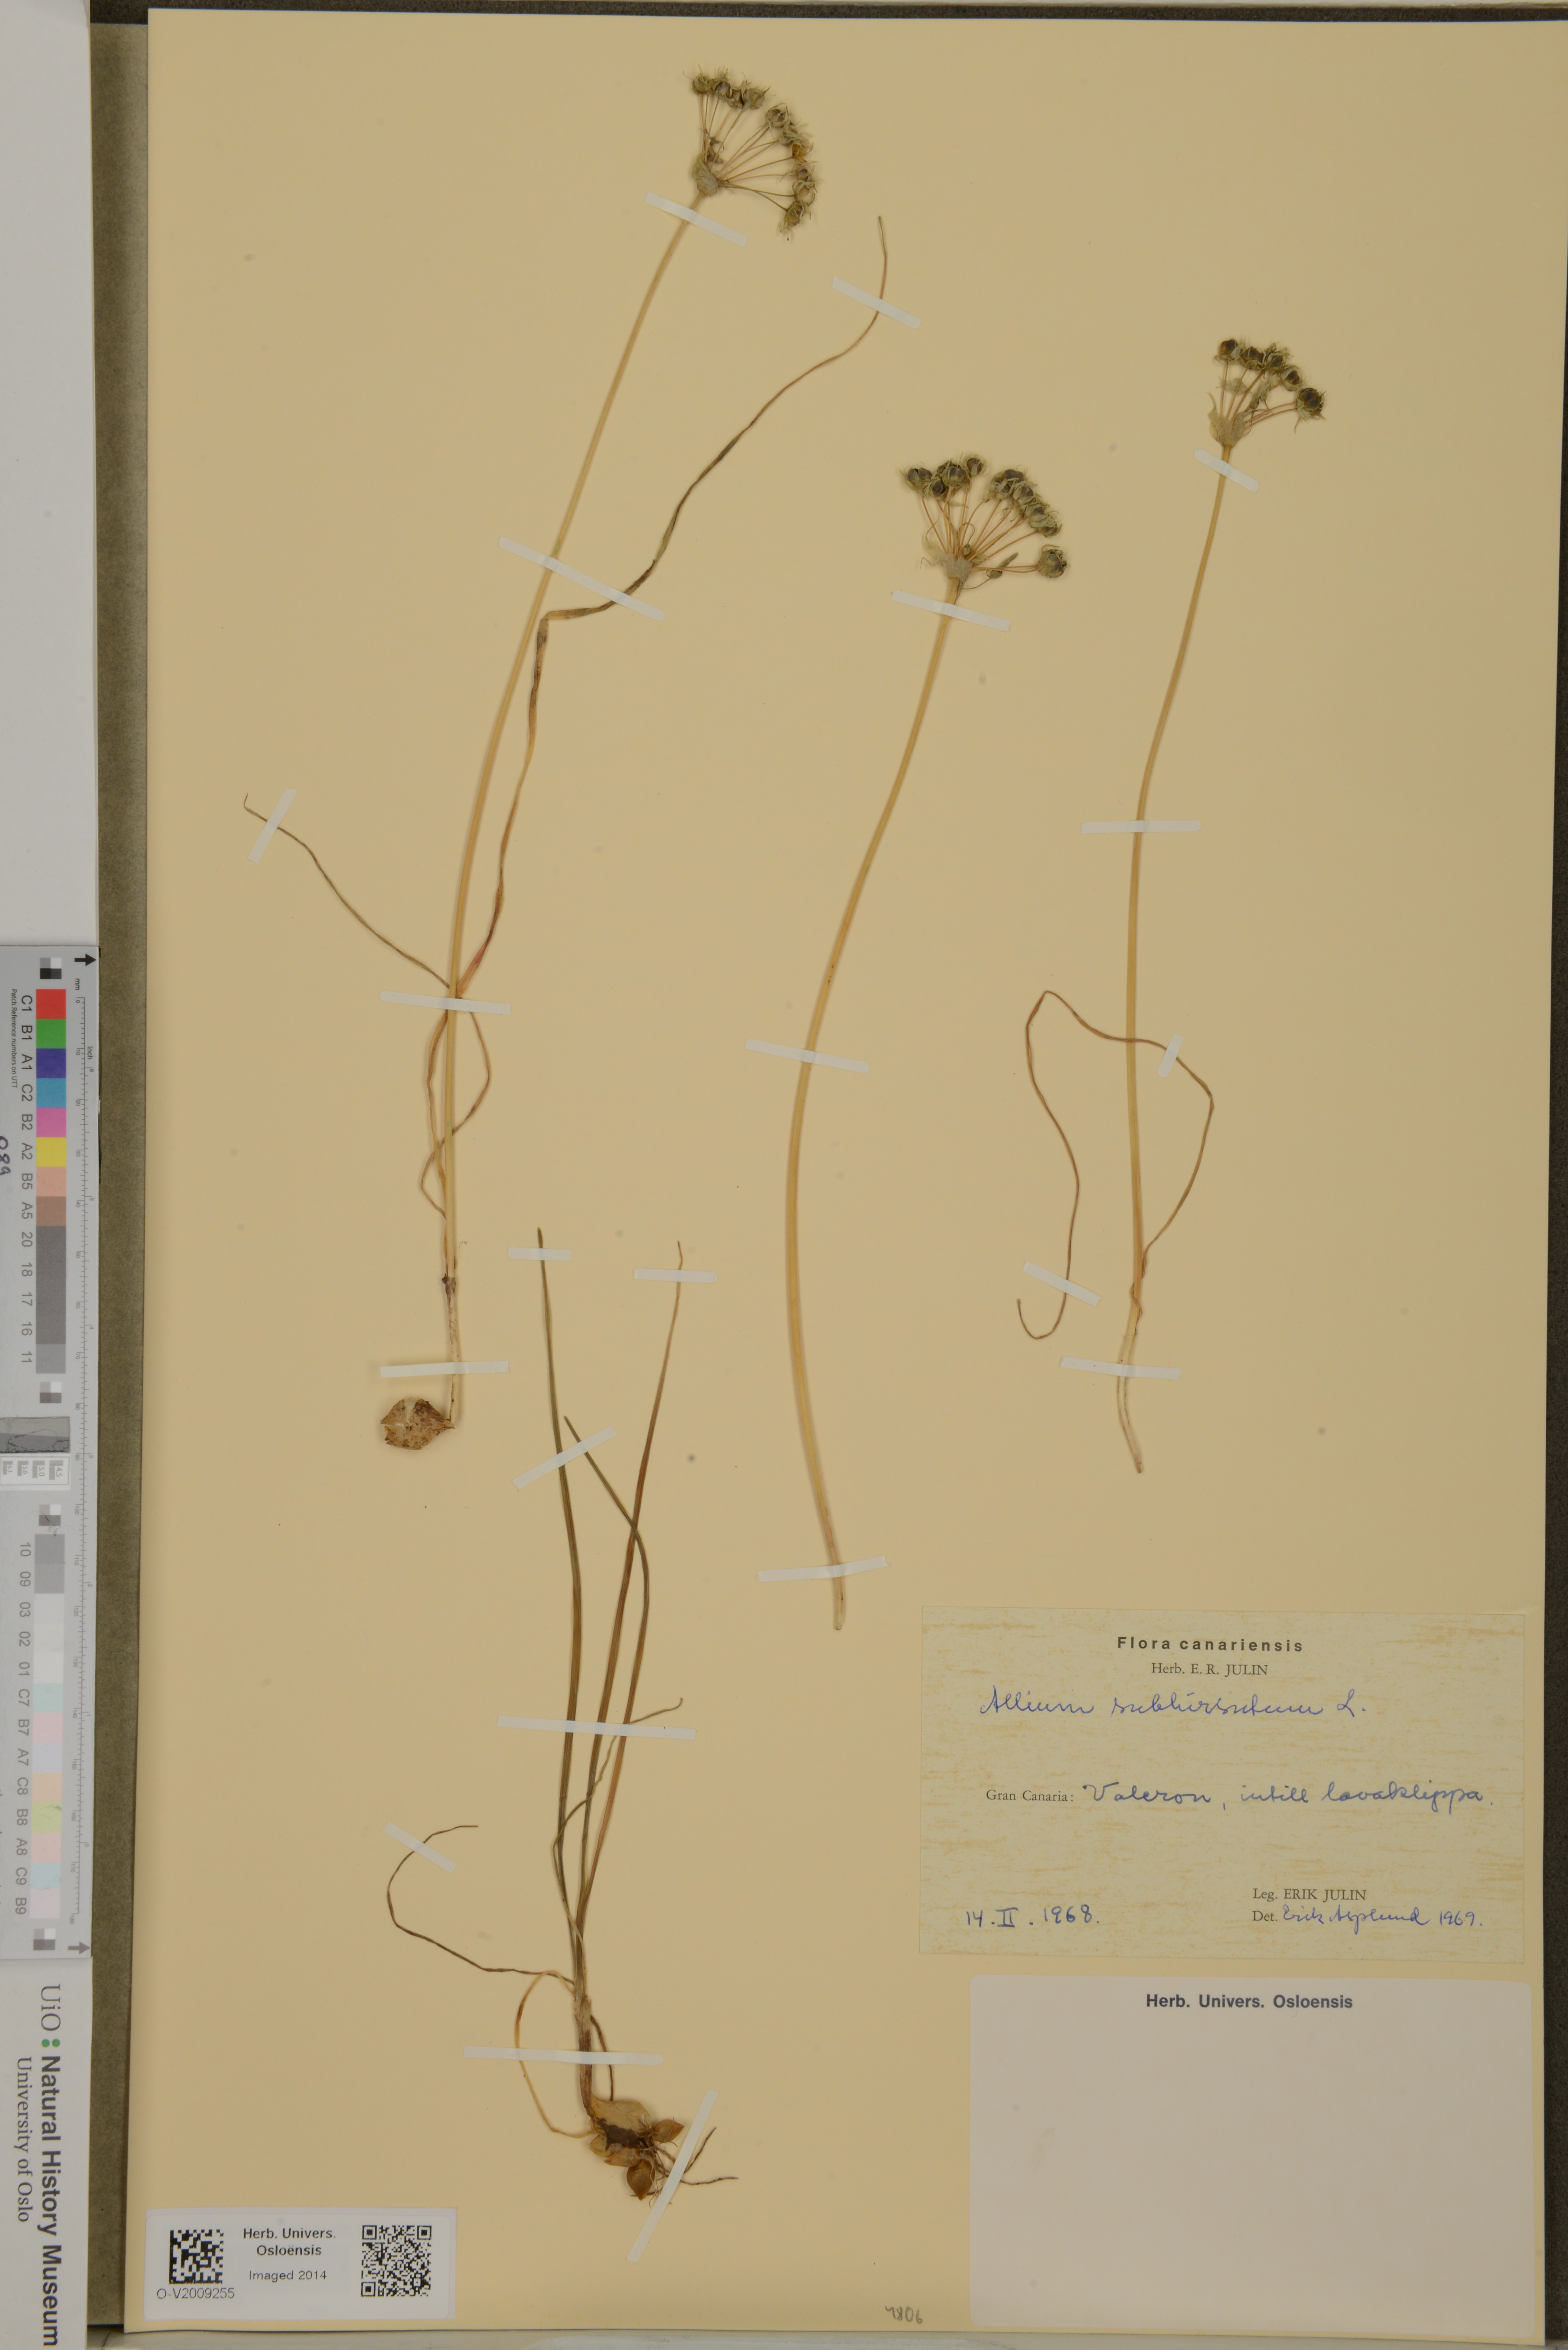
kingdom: Plantae
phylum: Tracheophyta
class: Liliopsida
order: Asparagales
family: Amaryllidaceae
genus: Allium
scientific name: Allium subhirsutum
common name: Hairy garlic
